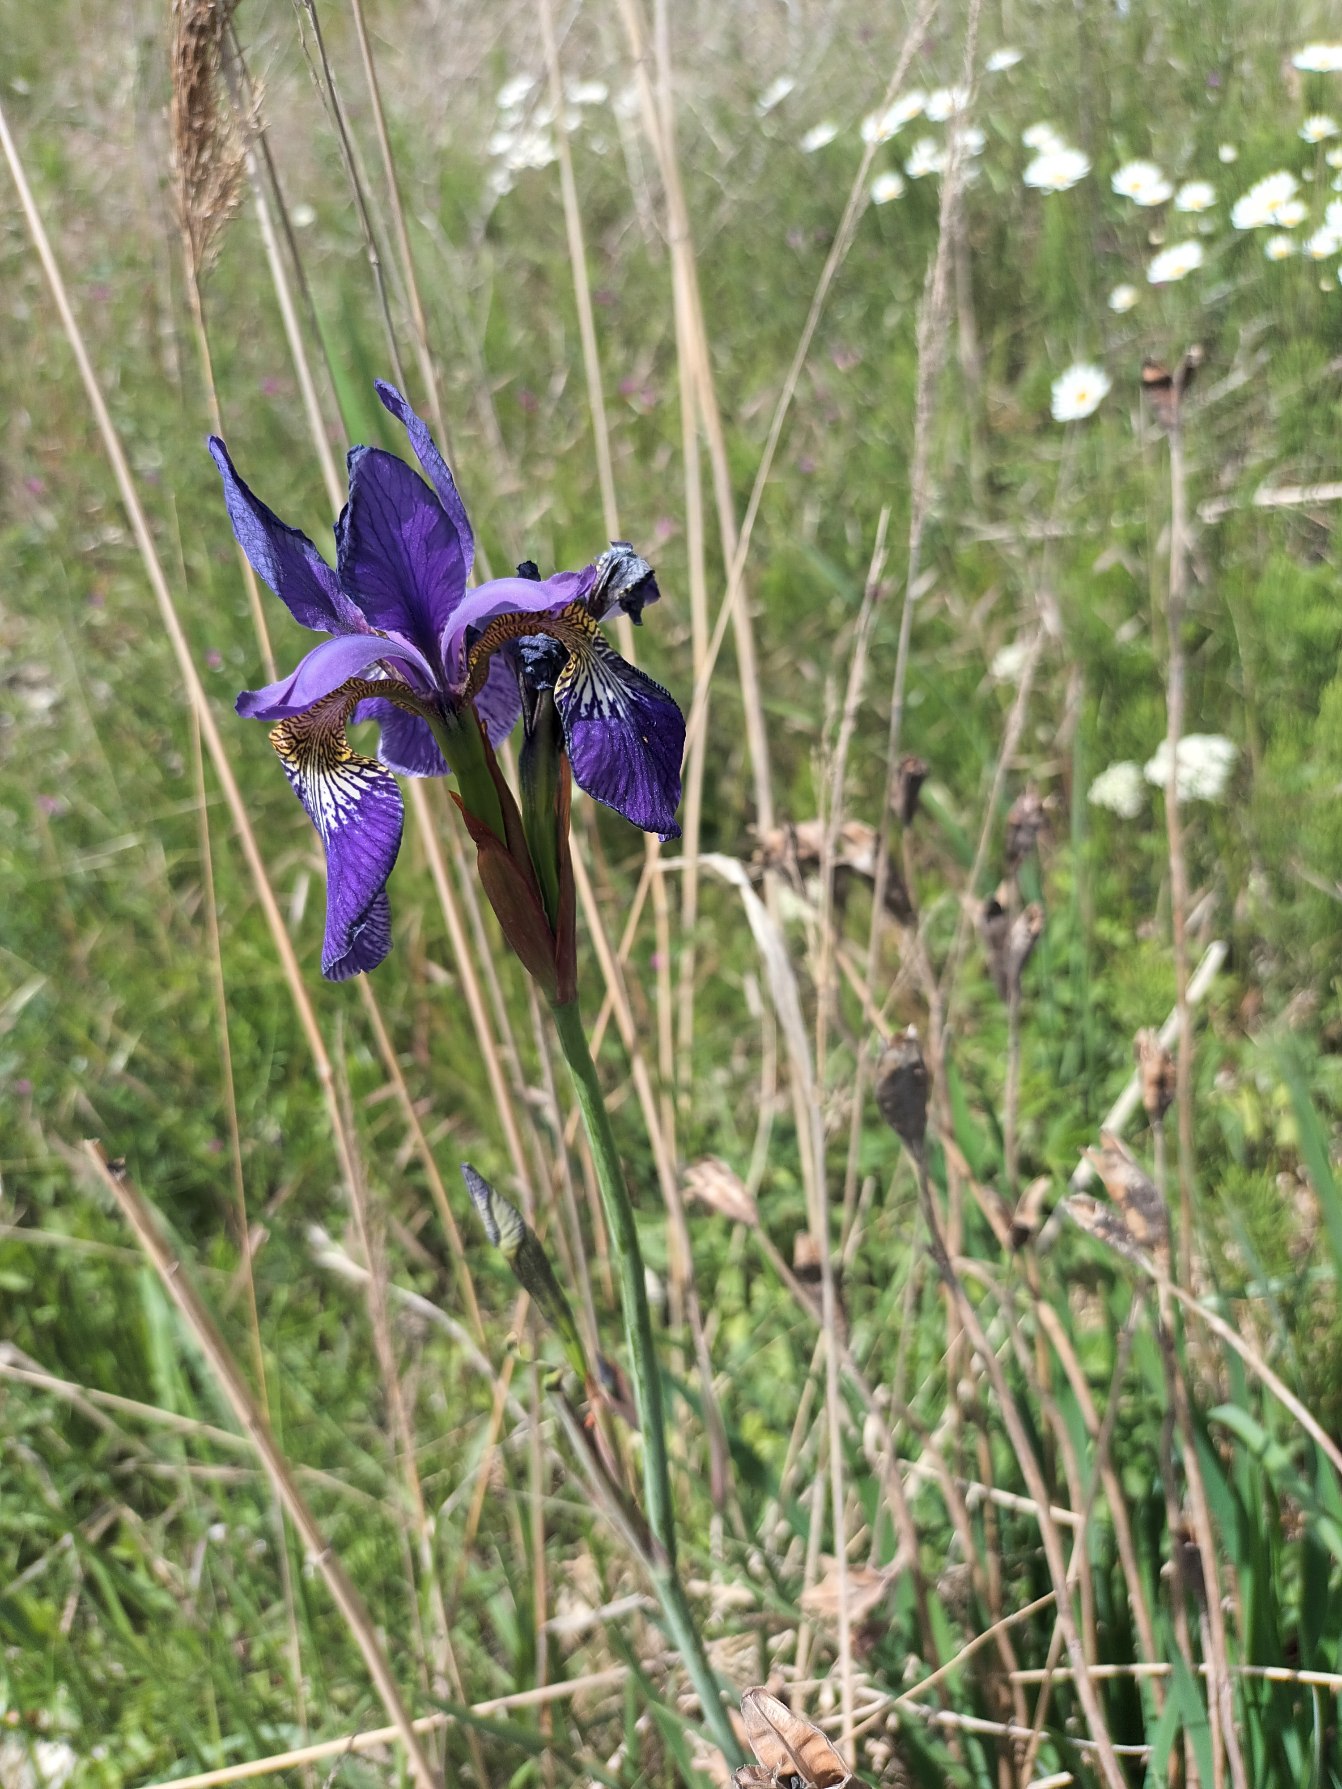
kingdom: Plantae
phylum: Tracheophyta
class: Liliopsida
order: Asparagales
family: Iridaceae
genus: Iris
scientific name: Iris sanguinea
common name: Viol-iris
